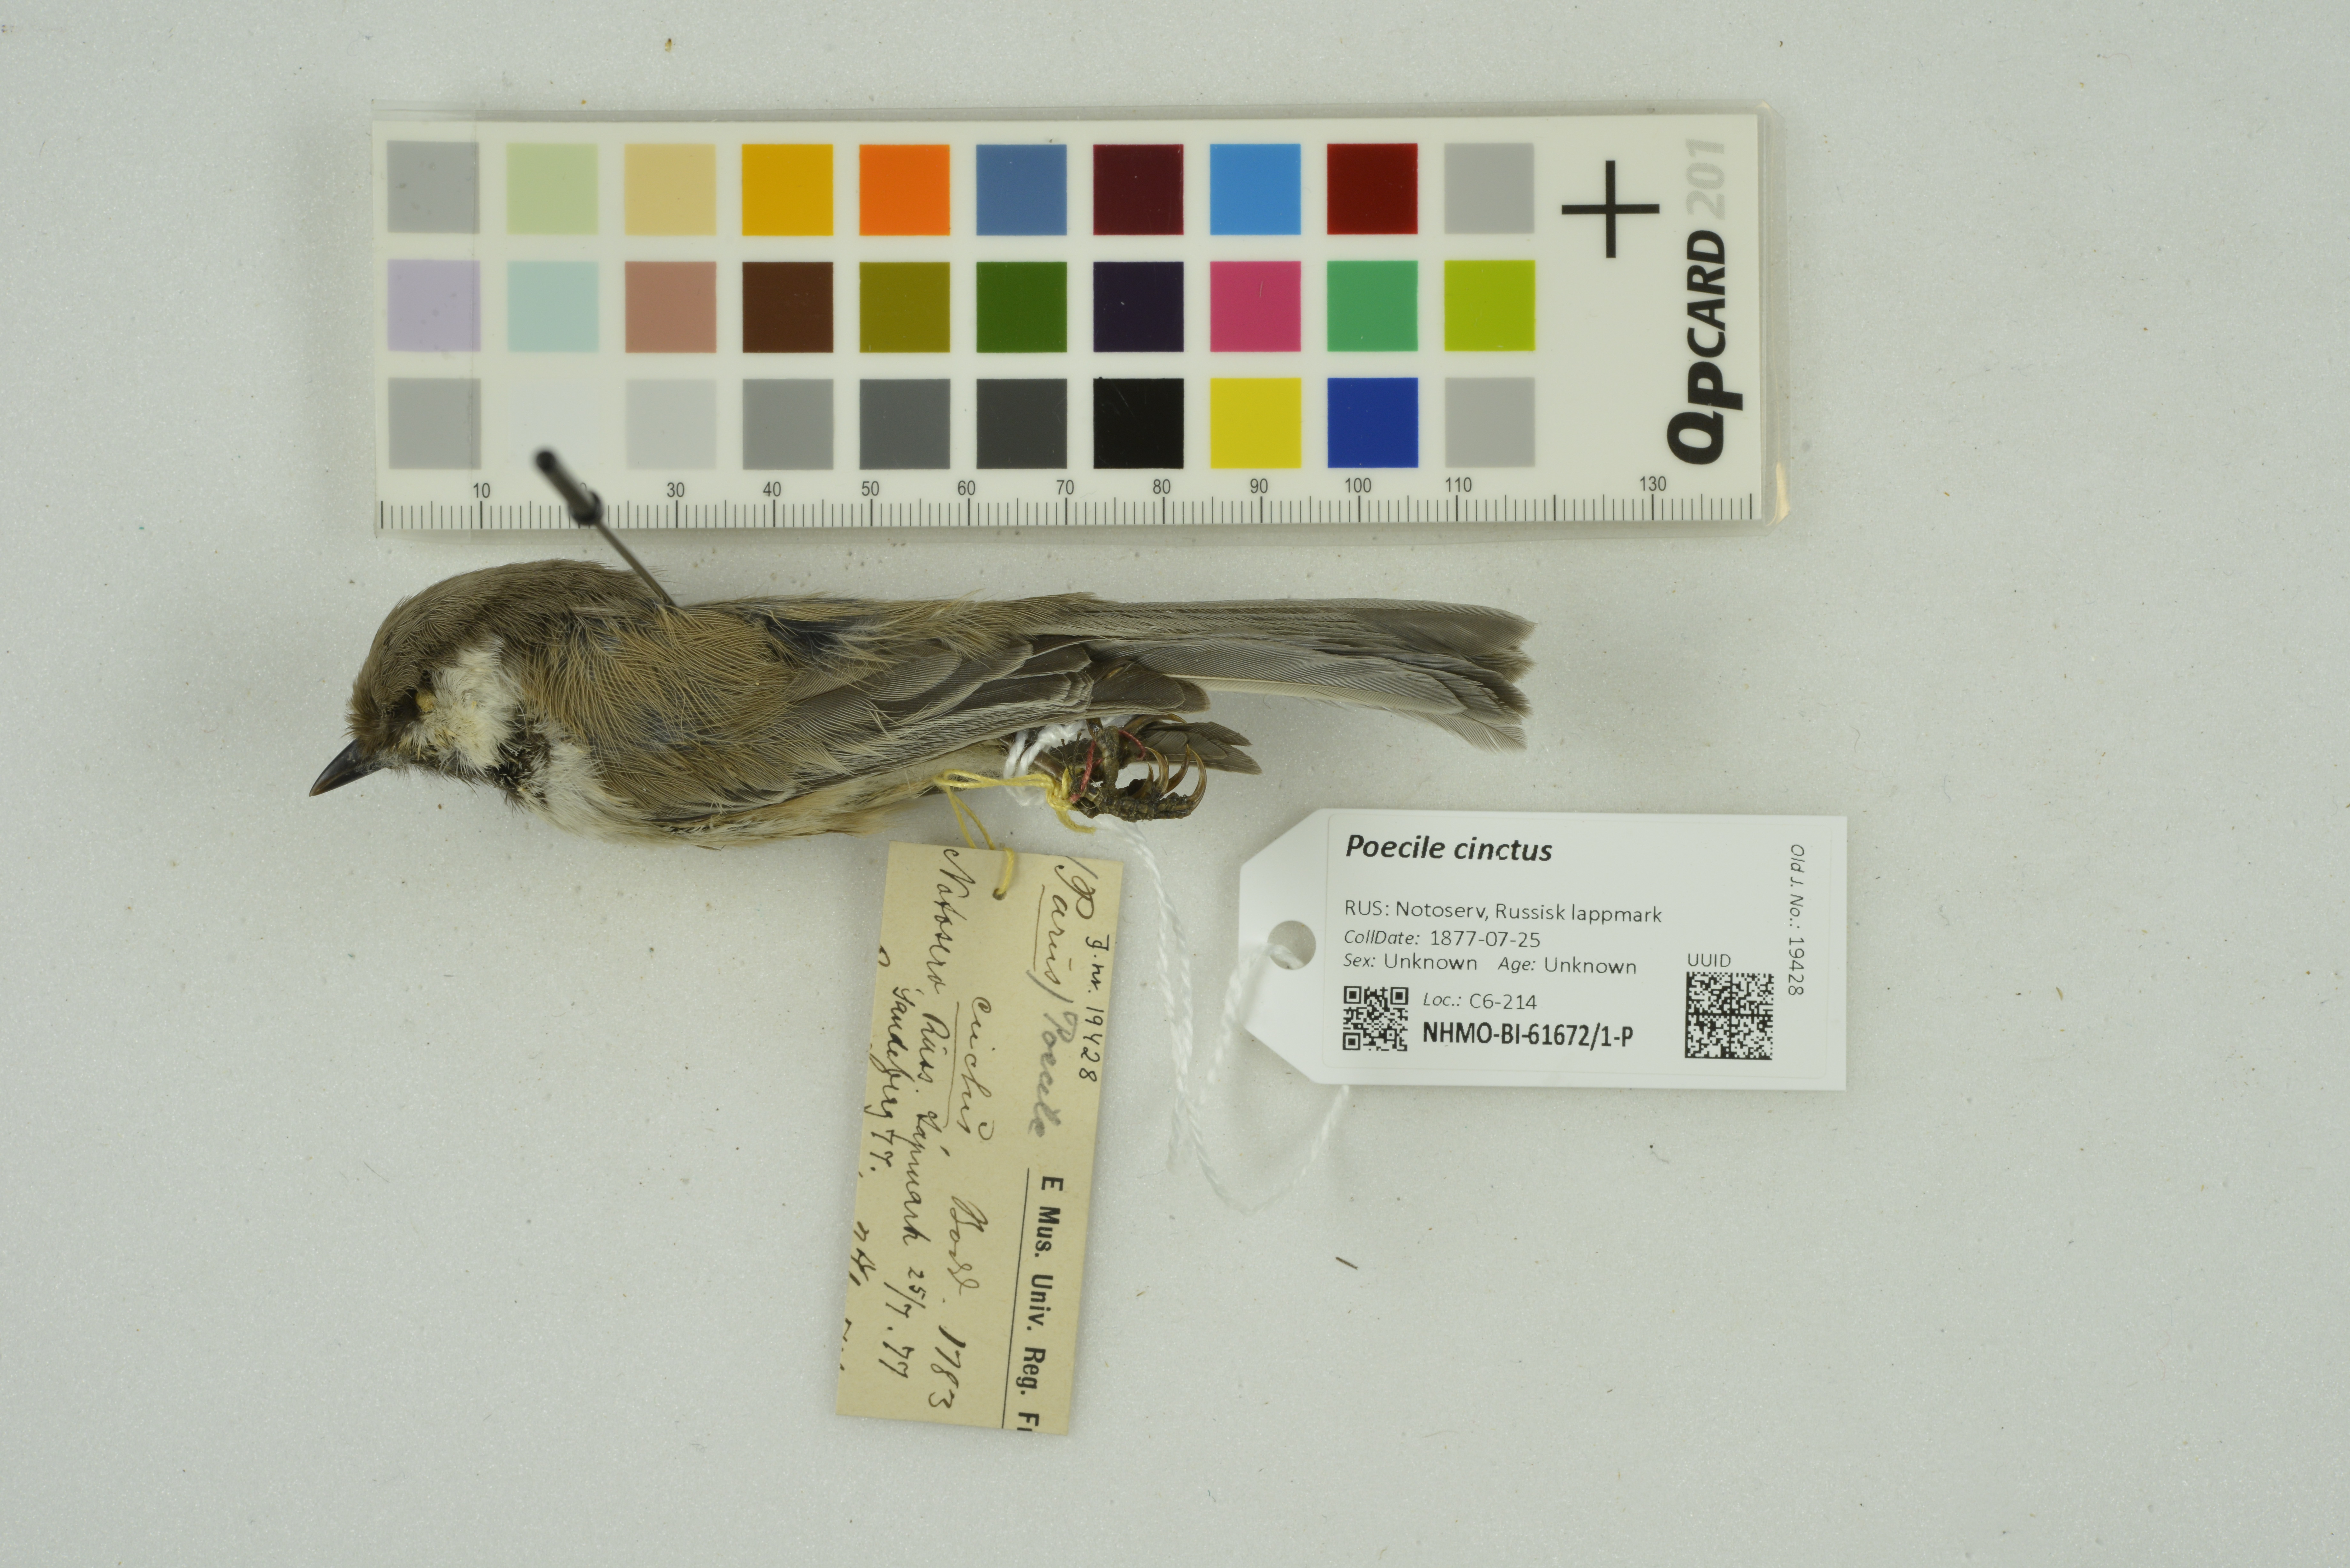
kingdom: Animalia
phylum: Chordata
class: Aves
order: Passeriformes
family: Paridae
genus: Poecile
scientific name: Poecile cinctus
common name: Gray-headed chickadee
